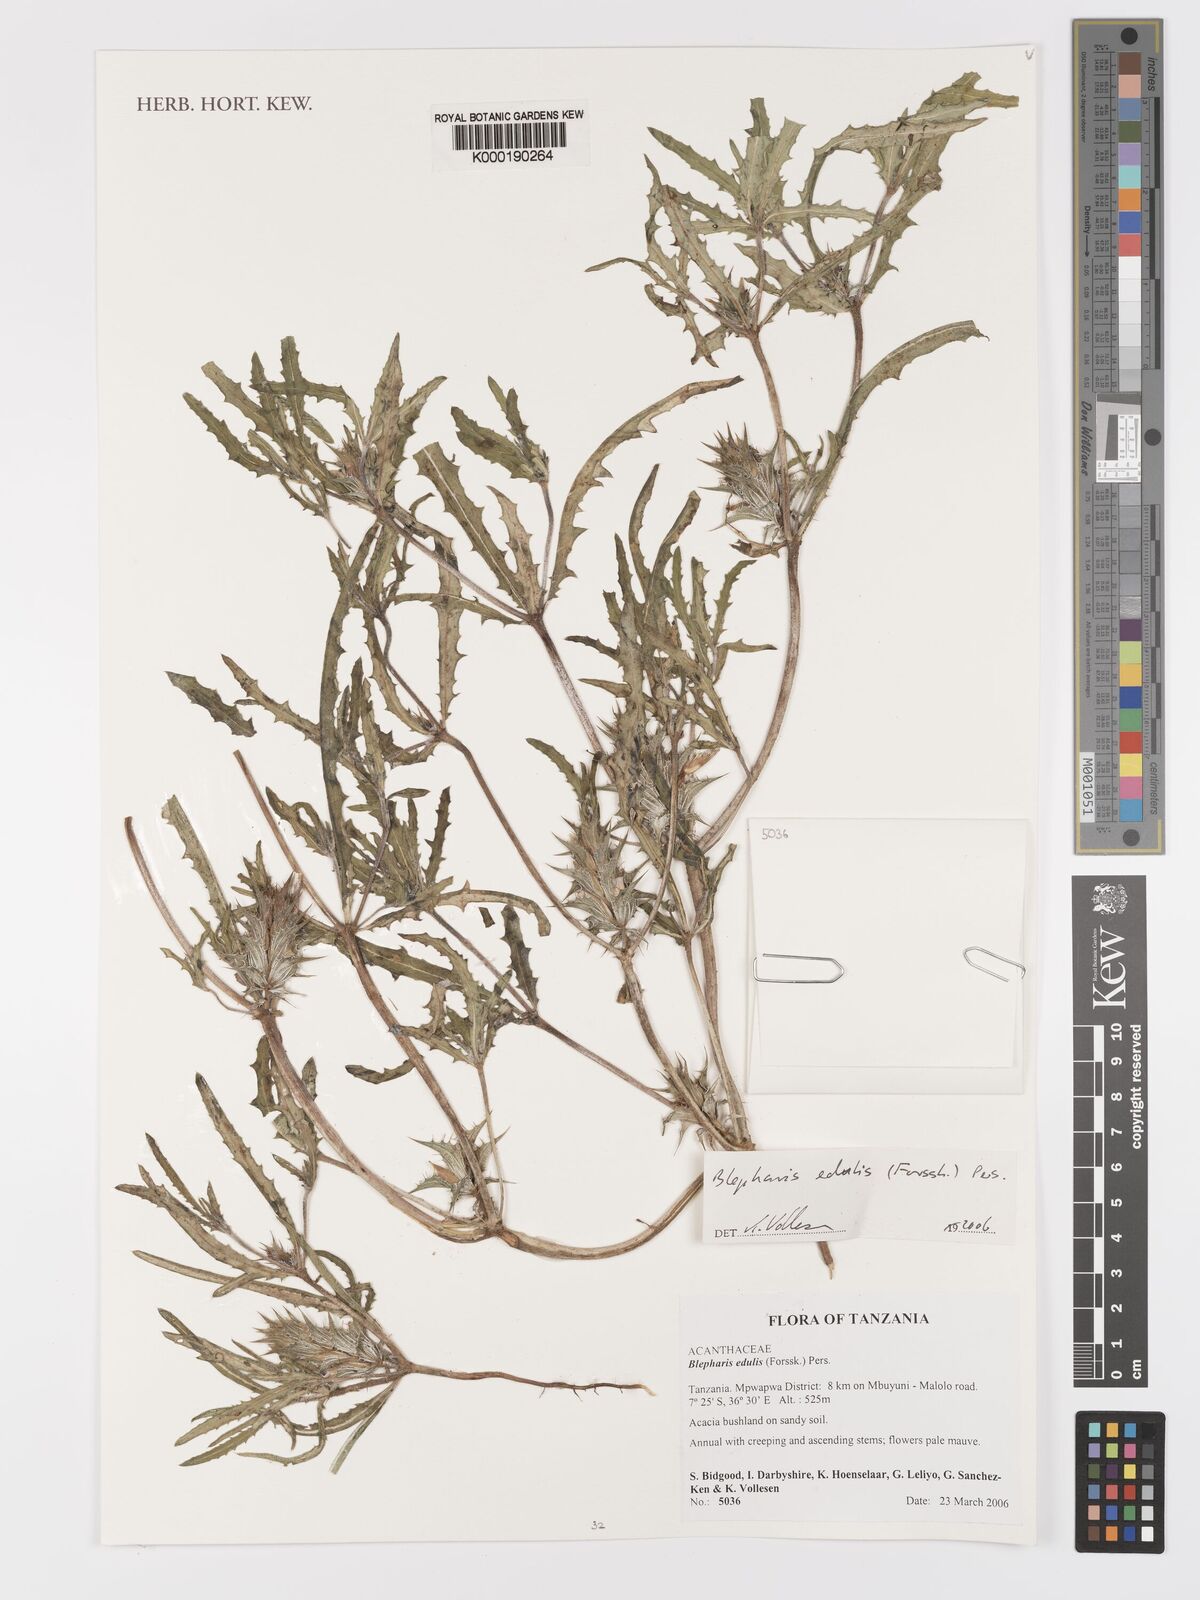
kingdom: Plantae
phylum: Tracheophyta
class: Magnoliopsida
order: Lamiales
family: Acanthaceae
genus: Blepharis
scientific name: Blepharis edulis
